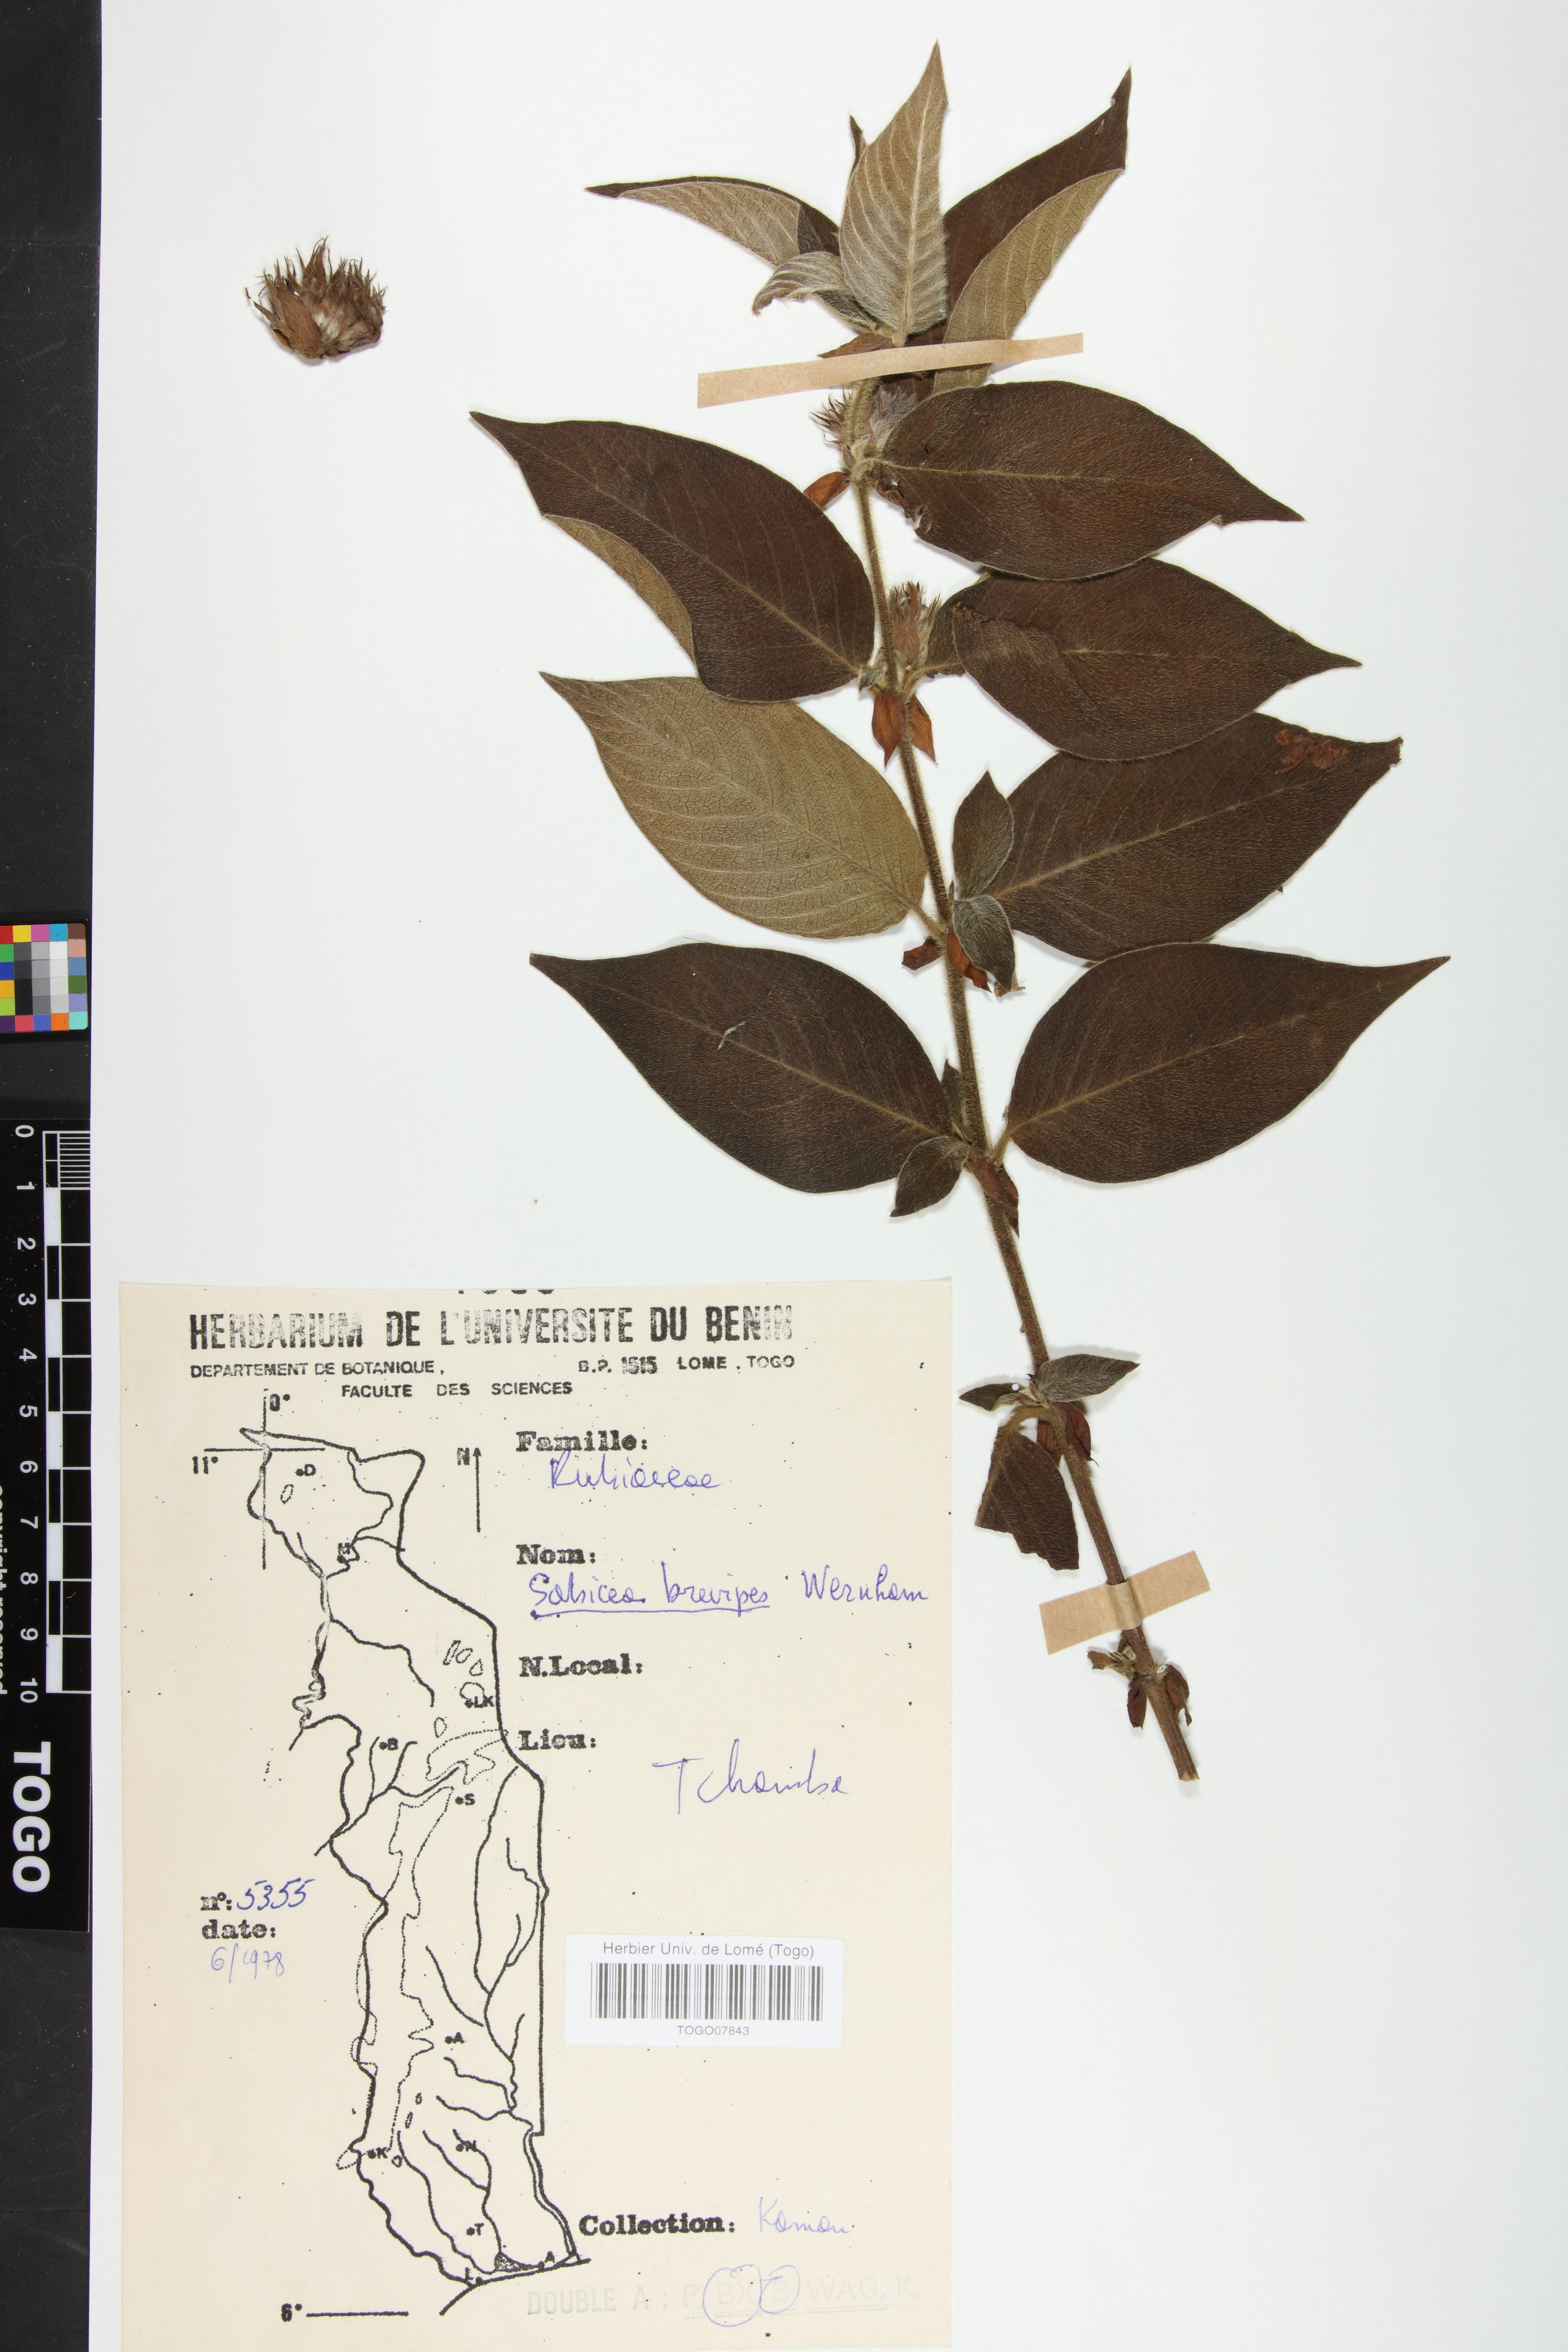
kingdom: Plantae
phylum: Tracheophyta
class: Magnoliopsida
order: Gentianales
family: Rubiaceae
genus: Sabicea
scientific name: Sabicea brevipes
